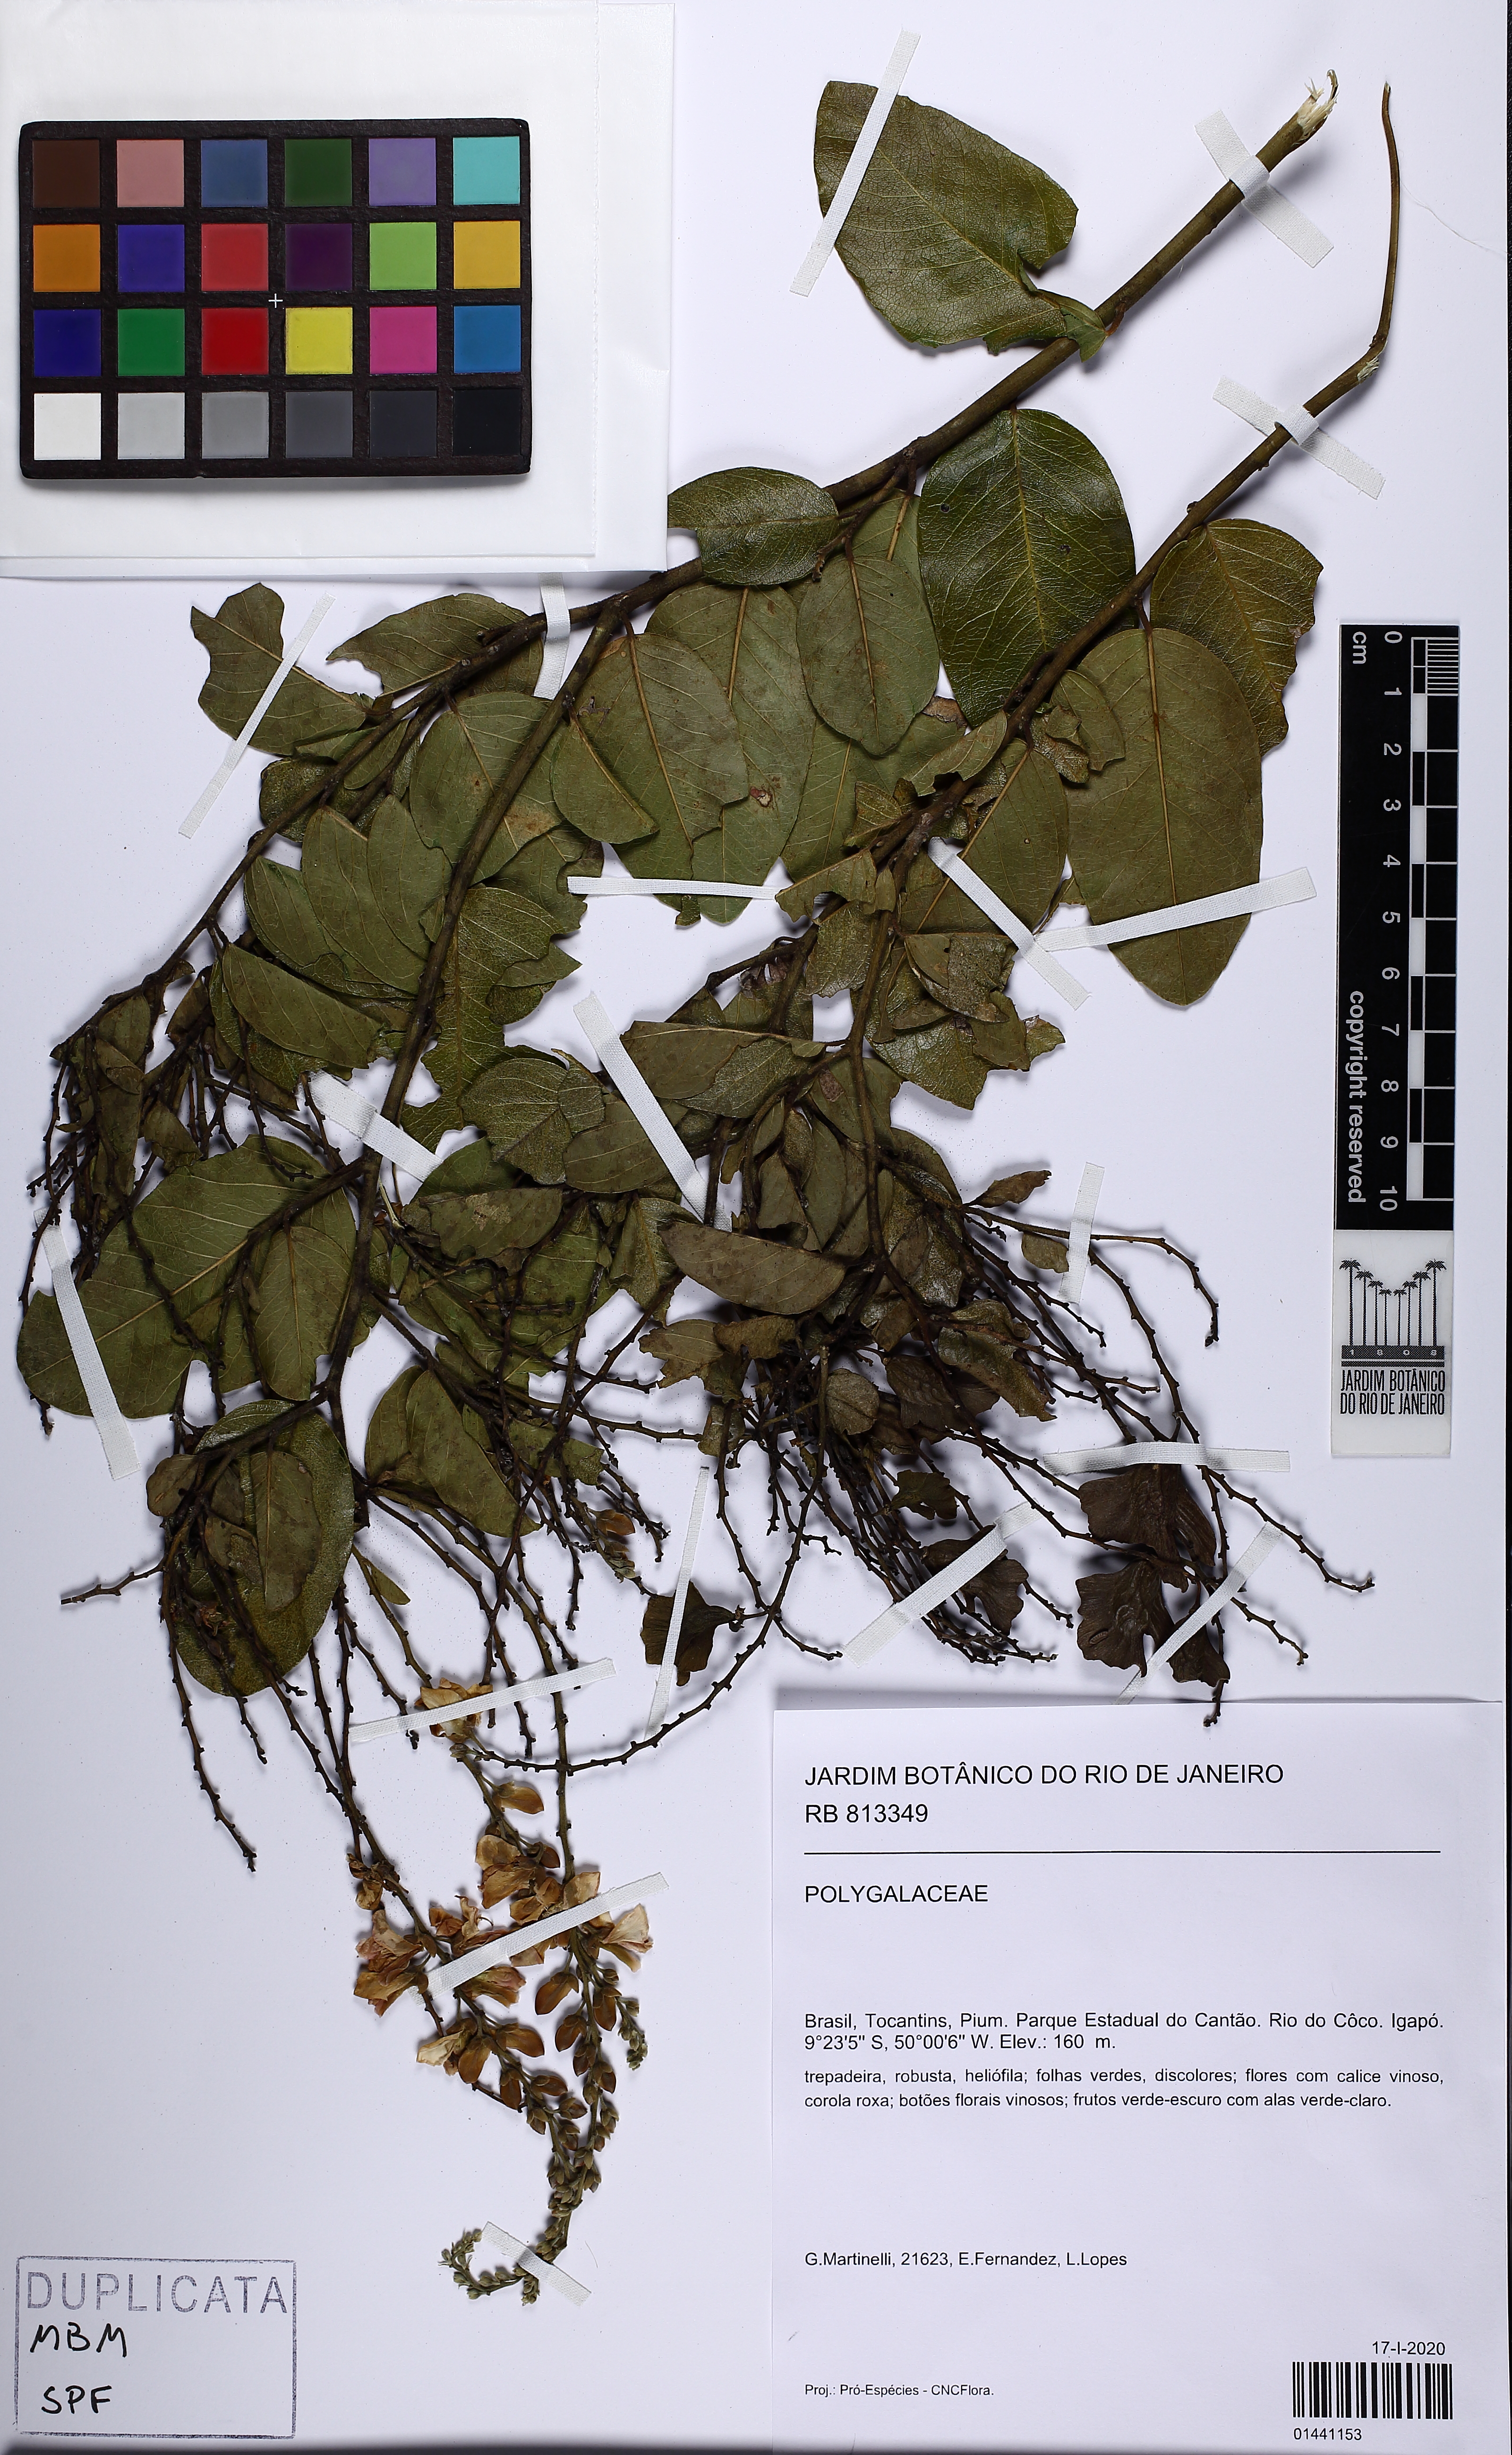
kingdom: Plantae
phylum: Tracheophyta
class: Magnoliopsida
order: Fabales
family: Polygalaceae
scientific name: Polygalaceae
